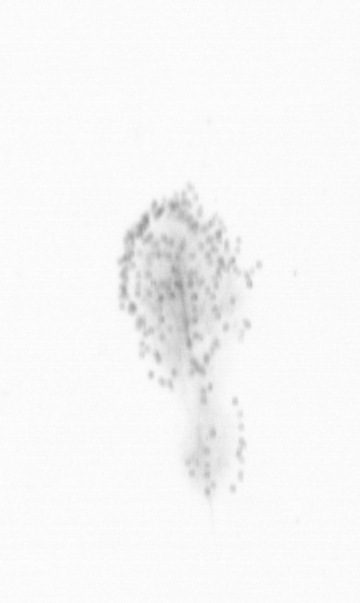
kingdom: Chromista
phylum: Ochrophyta
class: Bacillariophyceae
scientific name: Bacillariophyceae
